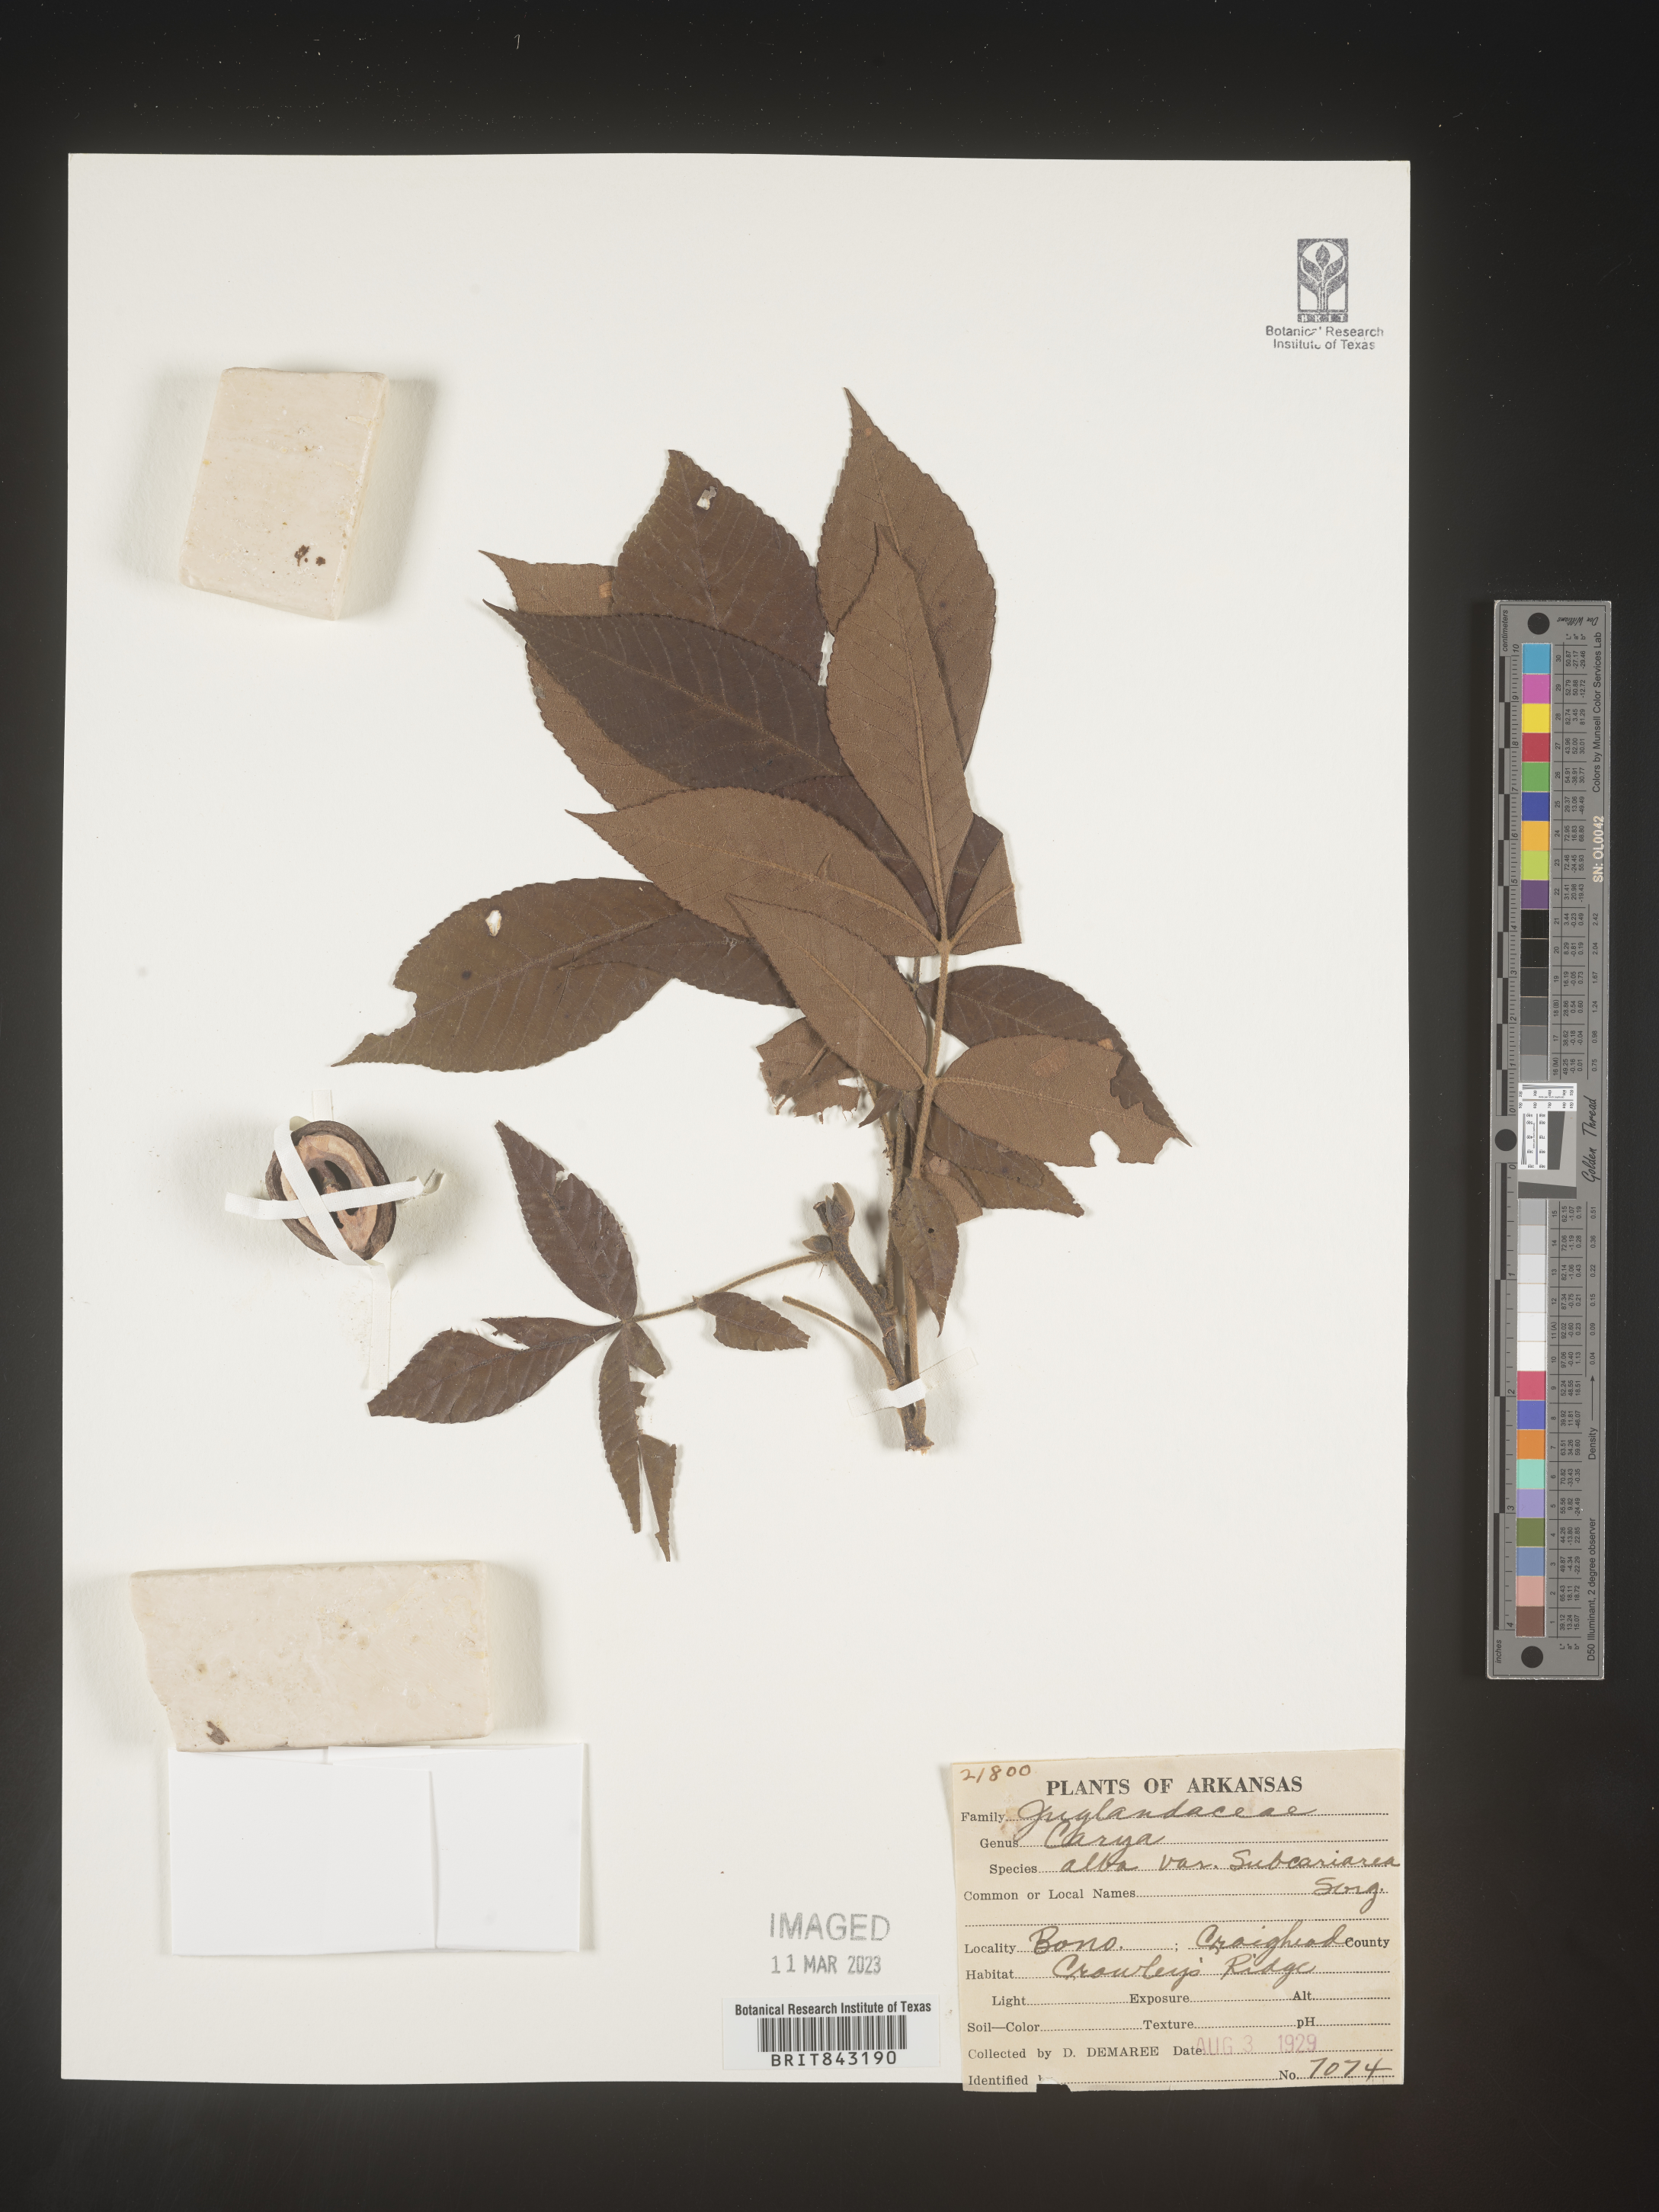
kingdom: Plantae
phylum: Tracheophyta
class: Magnoliopsida
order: Fagales
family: Juglandaceae
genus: Carya
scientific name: Carya alba
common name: Mockernut hickory
